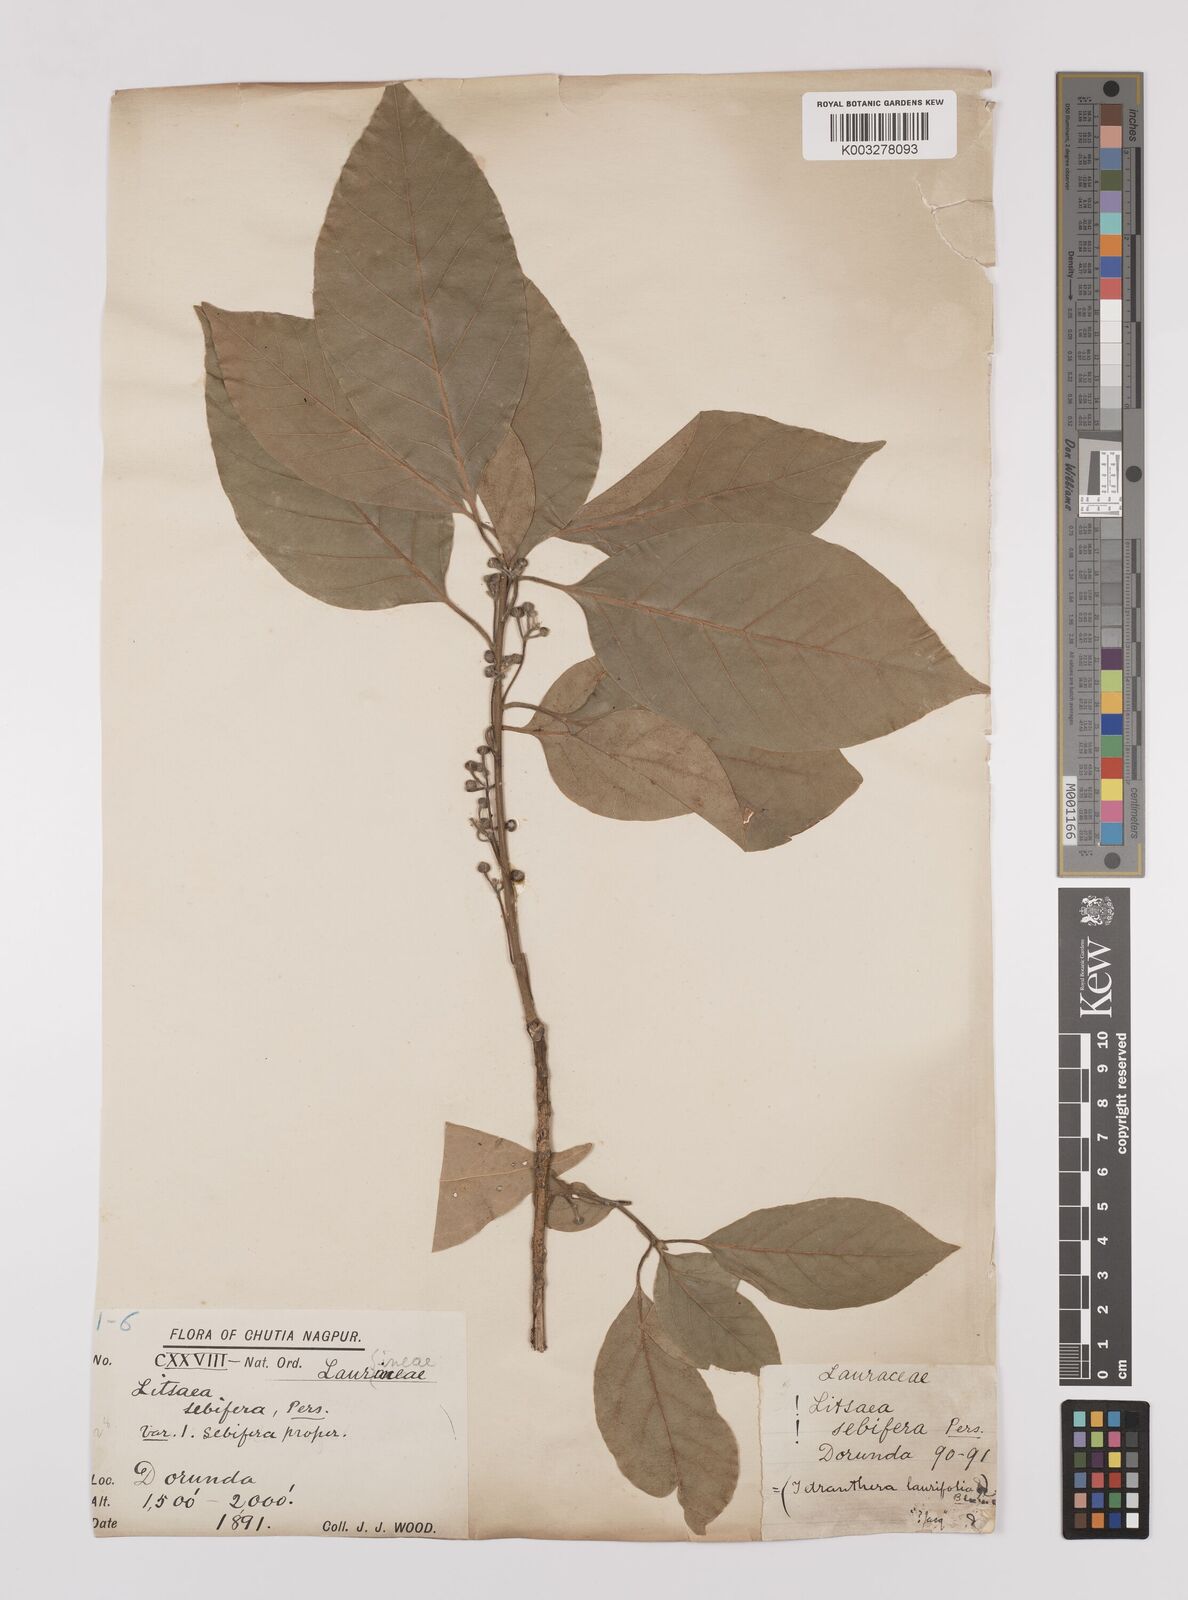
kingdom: Plantae
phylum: Tracheophyta
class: Magnoliopsida
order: Laurales
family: Lauraceae
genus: Litsea
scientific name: Litsea
